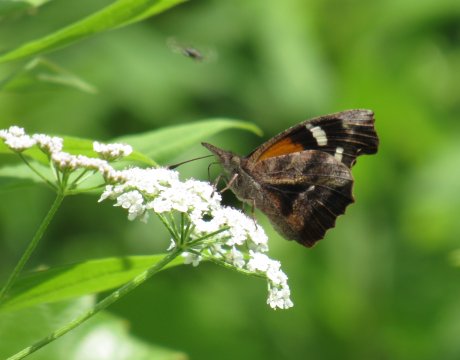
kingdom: Animalia
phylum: Arthropoda
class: Insecta
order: Lepidoptera
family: Nymphalidae
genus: Libytheana
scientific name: Libytheana carinenta
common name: American Snout
